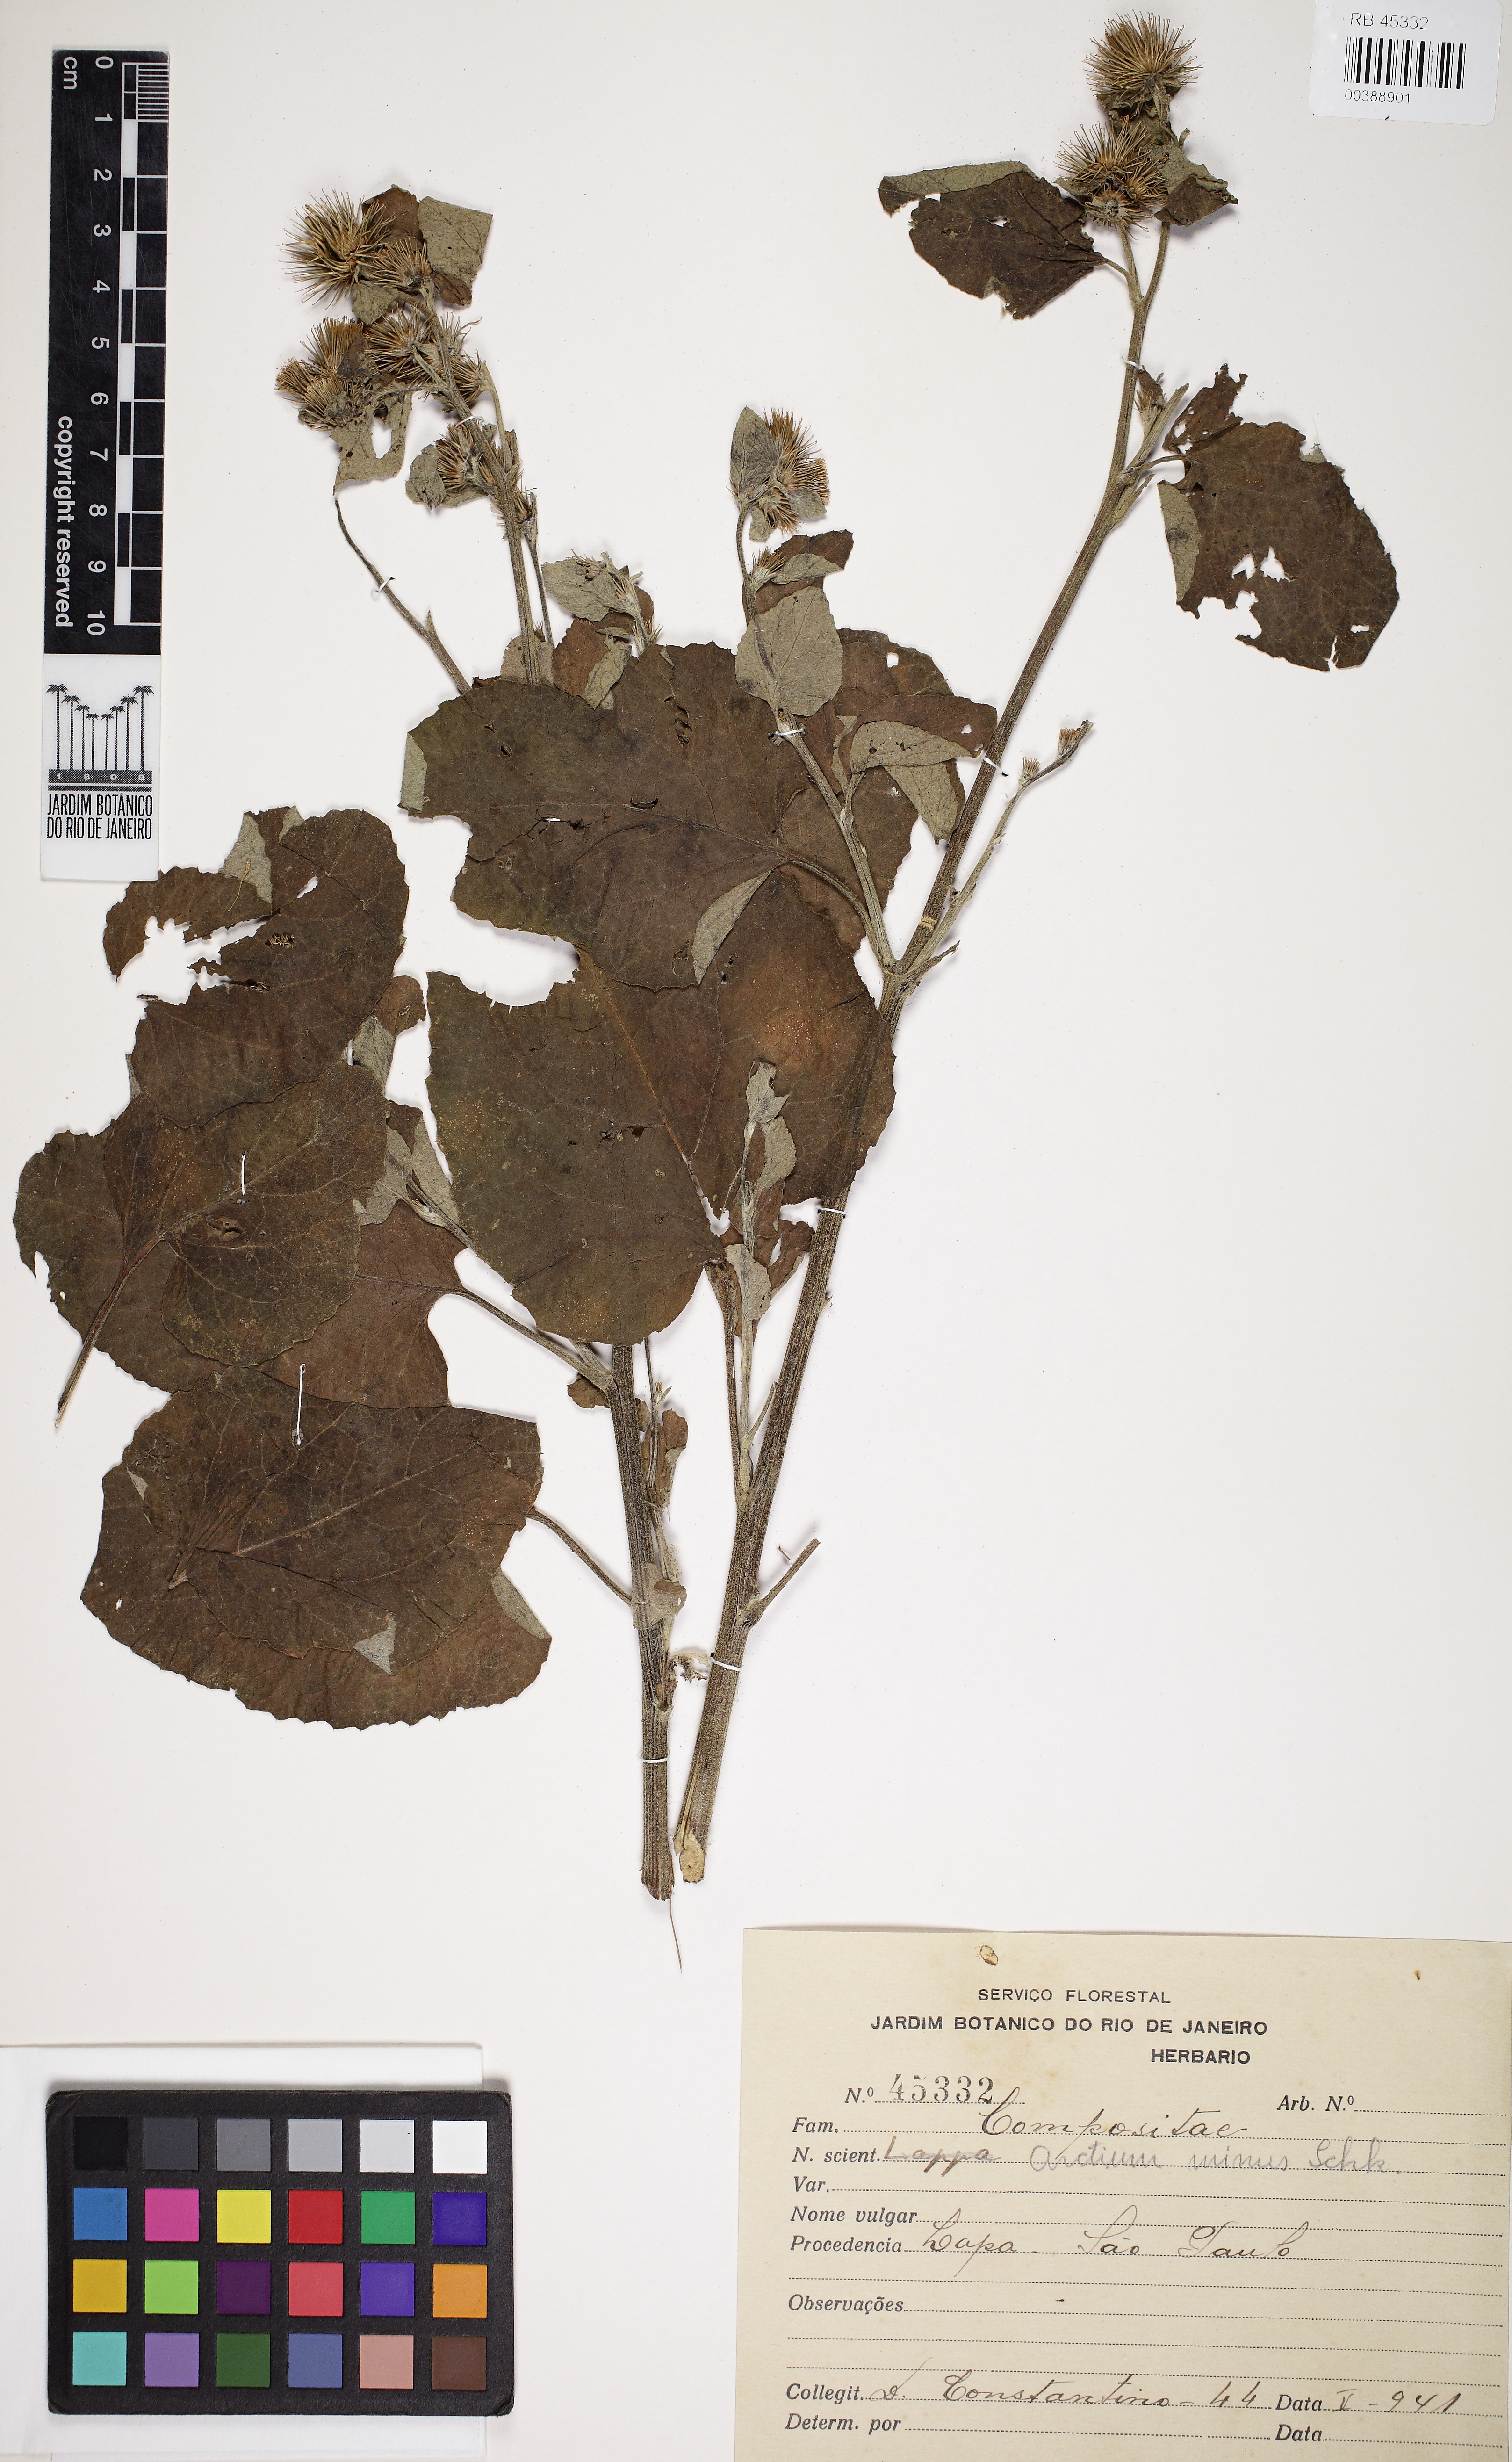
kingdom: Plantae
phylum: Tracheophyta
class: Magnoliopsida
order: Asterales
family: Asteraceae
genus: Arctium
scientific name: Arctium minus
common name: Lesser burdock
